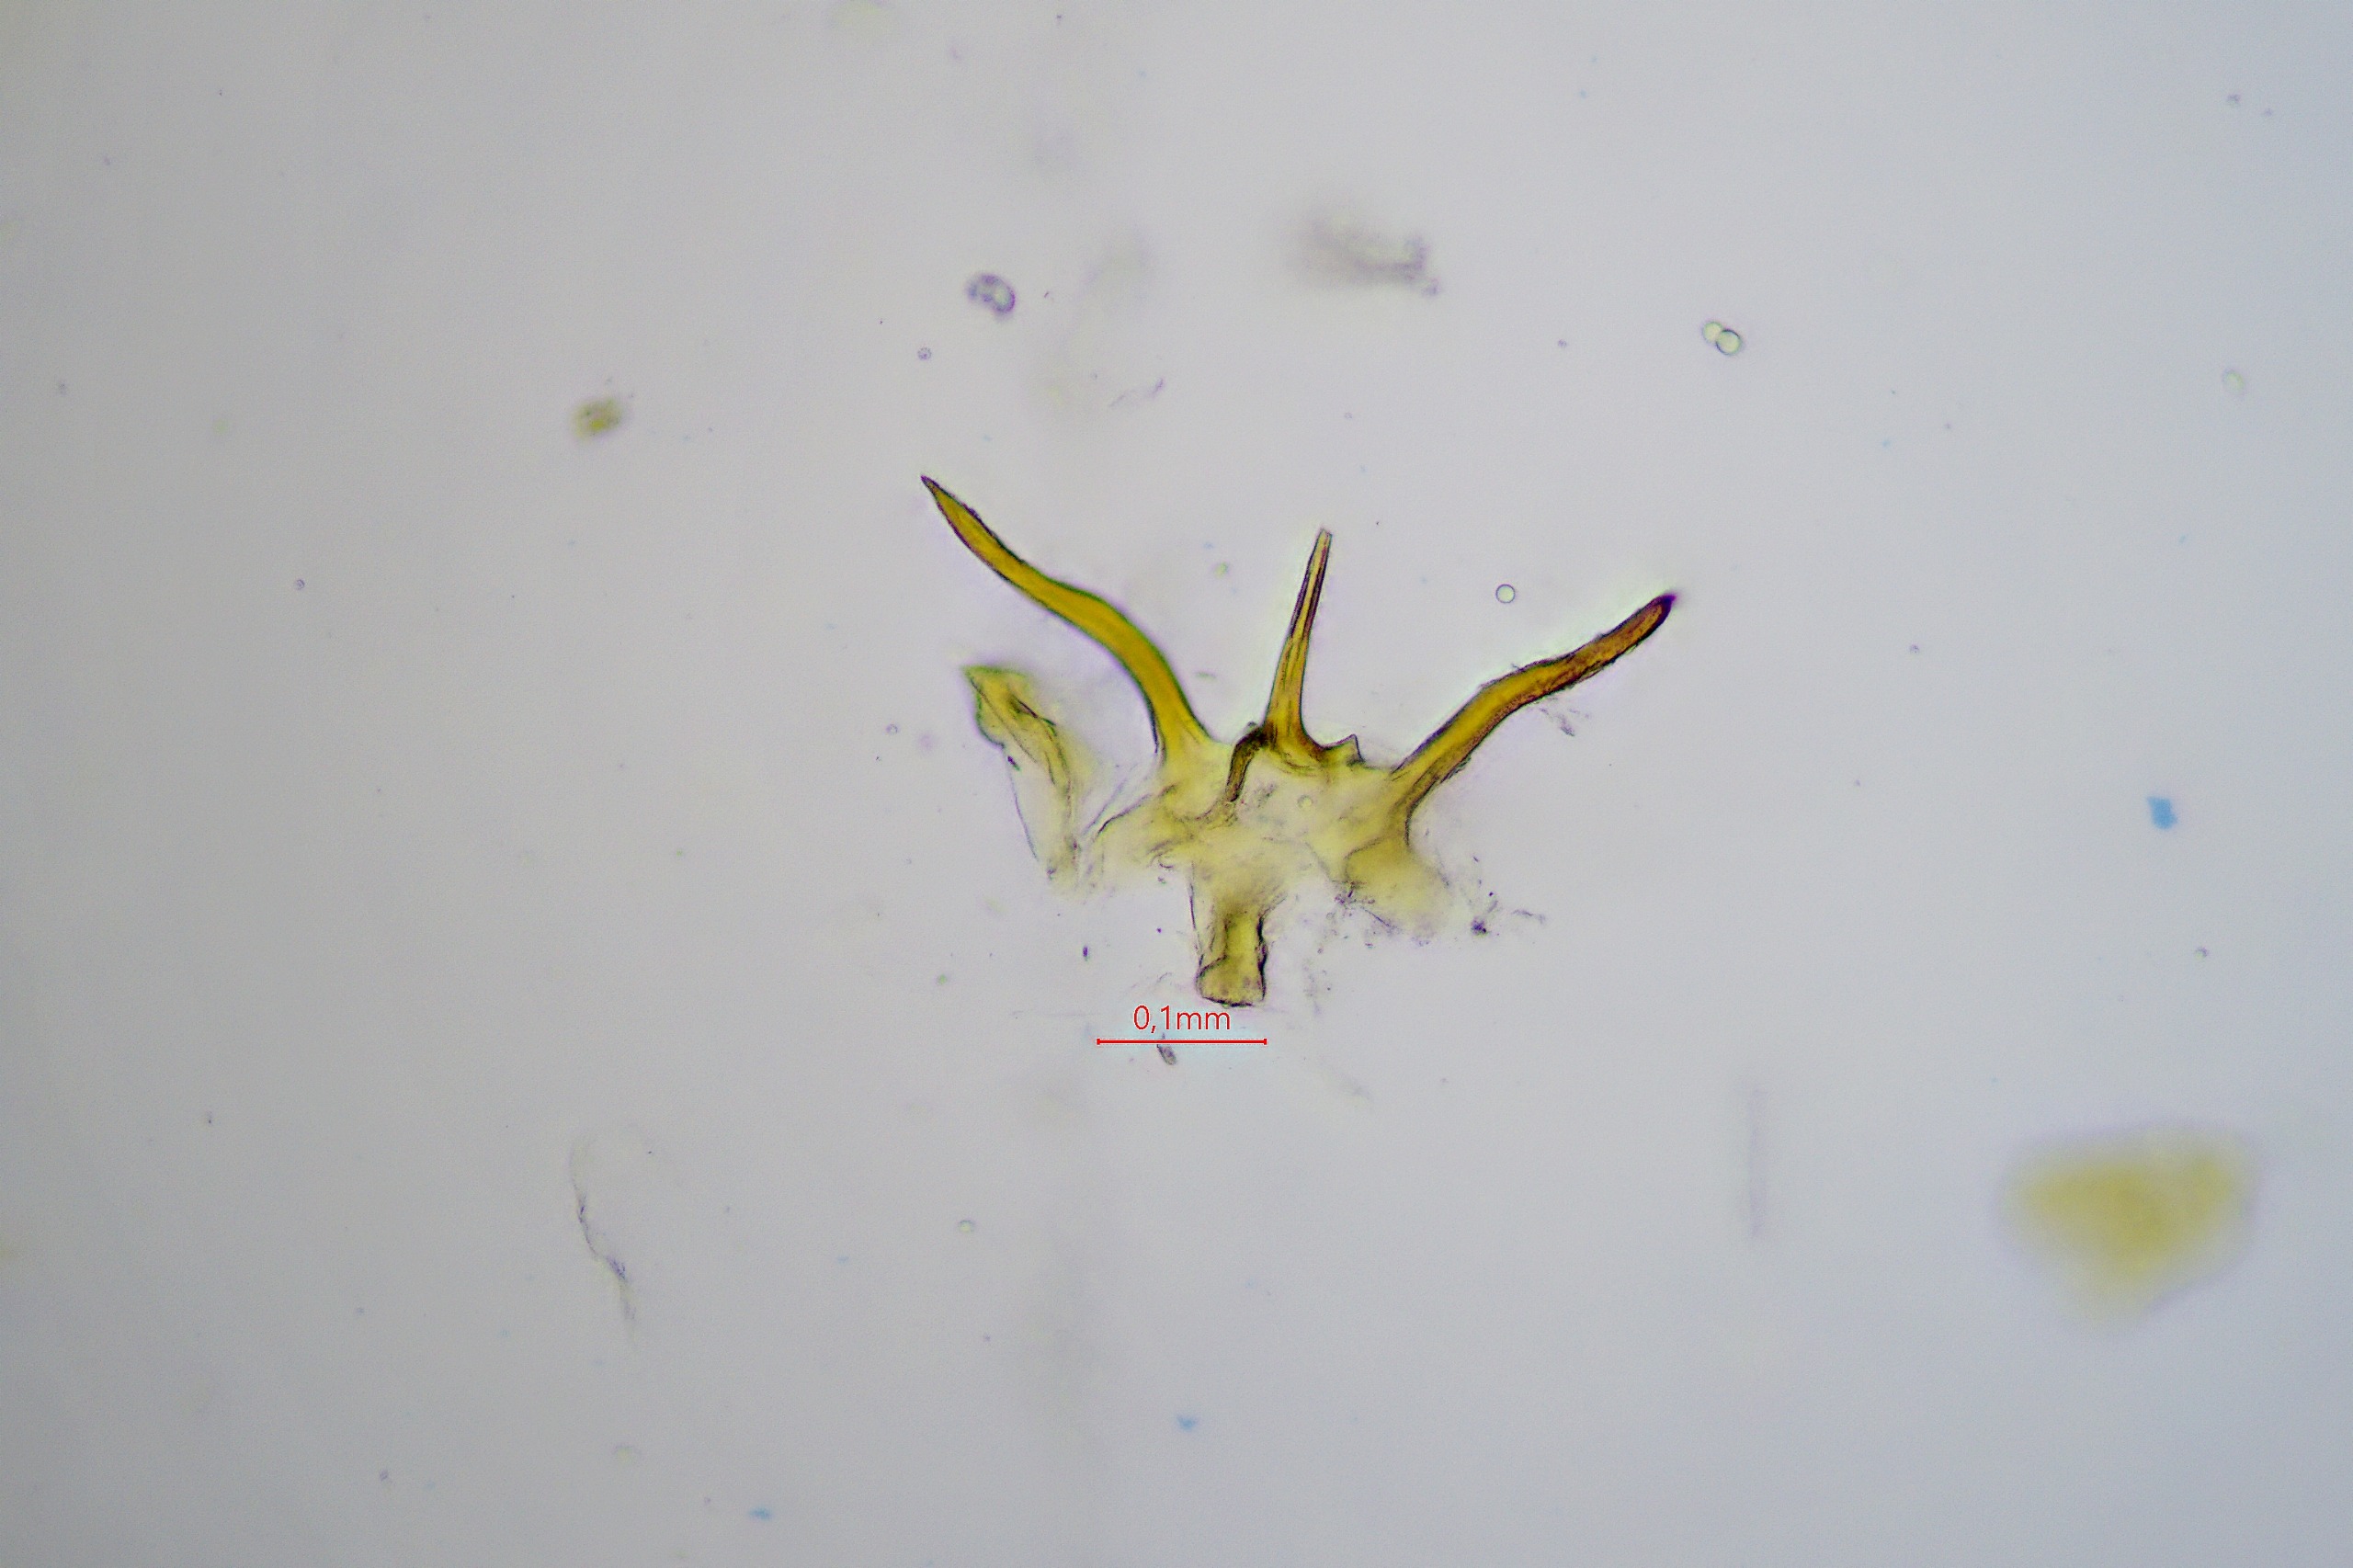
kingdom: Animalia
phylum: Arthropoda
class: Insecta
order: Hemiptera
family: Cicadellidae
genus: Chlorita
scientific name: Chlorita viridula
